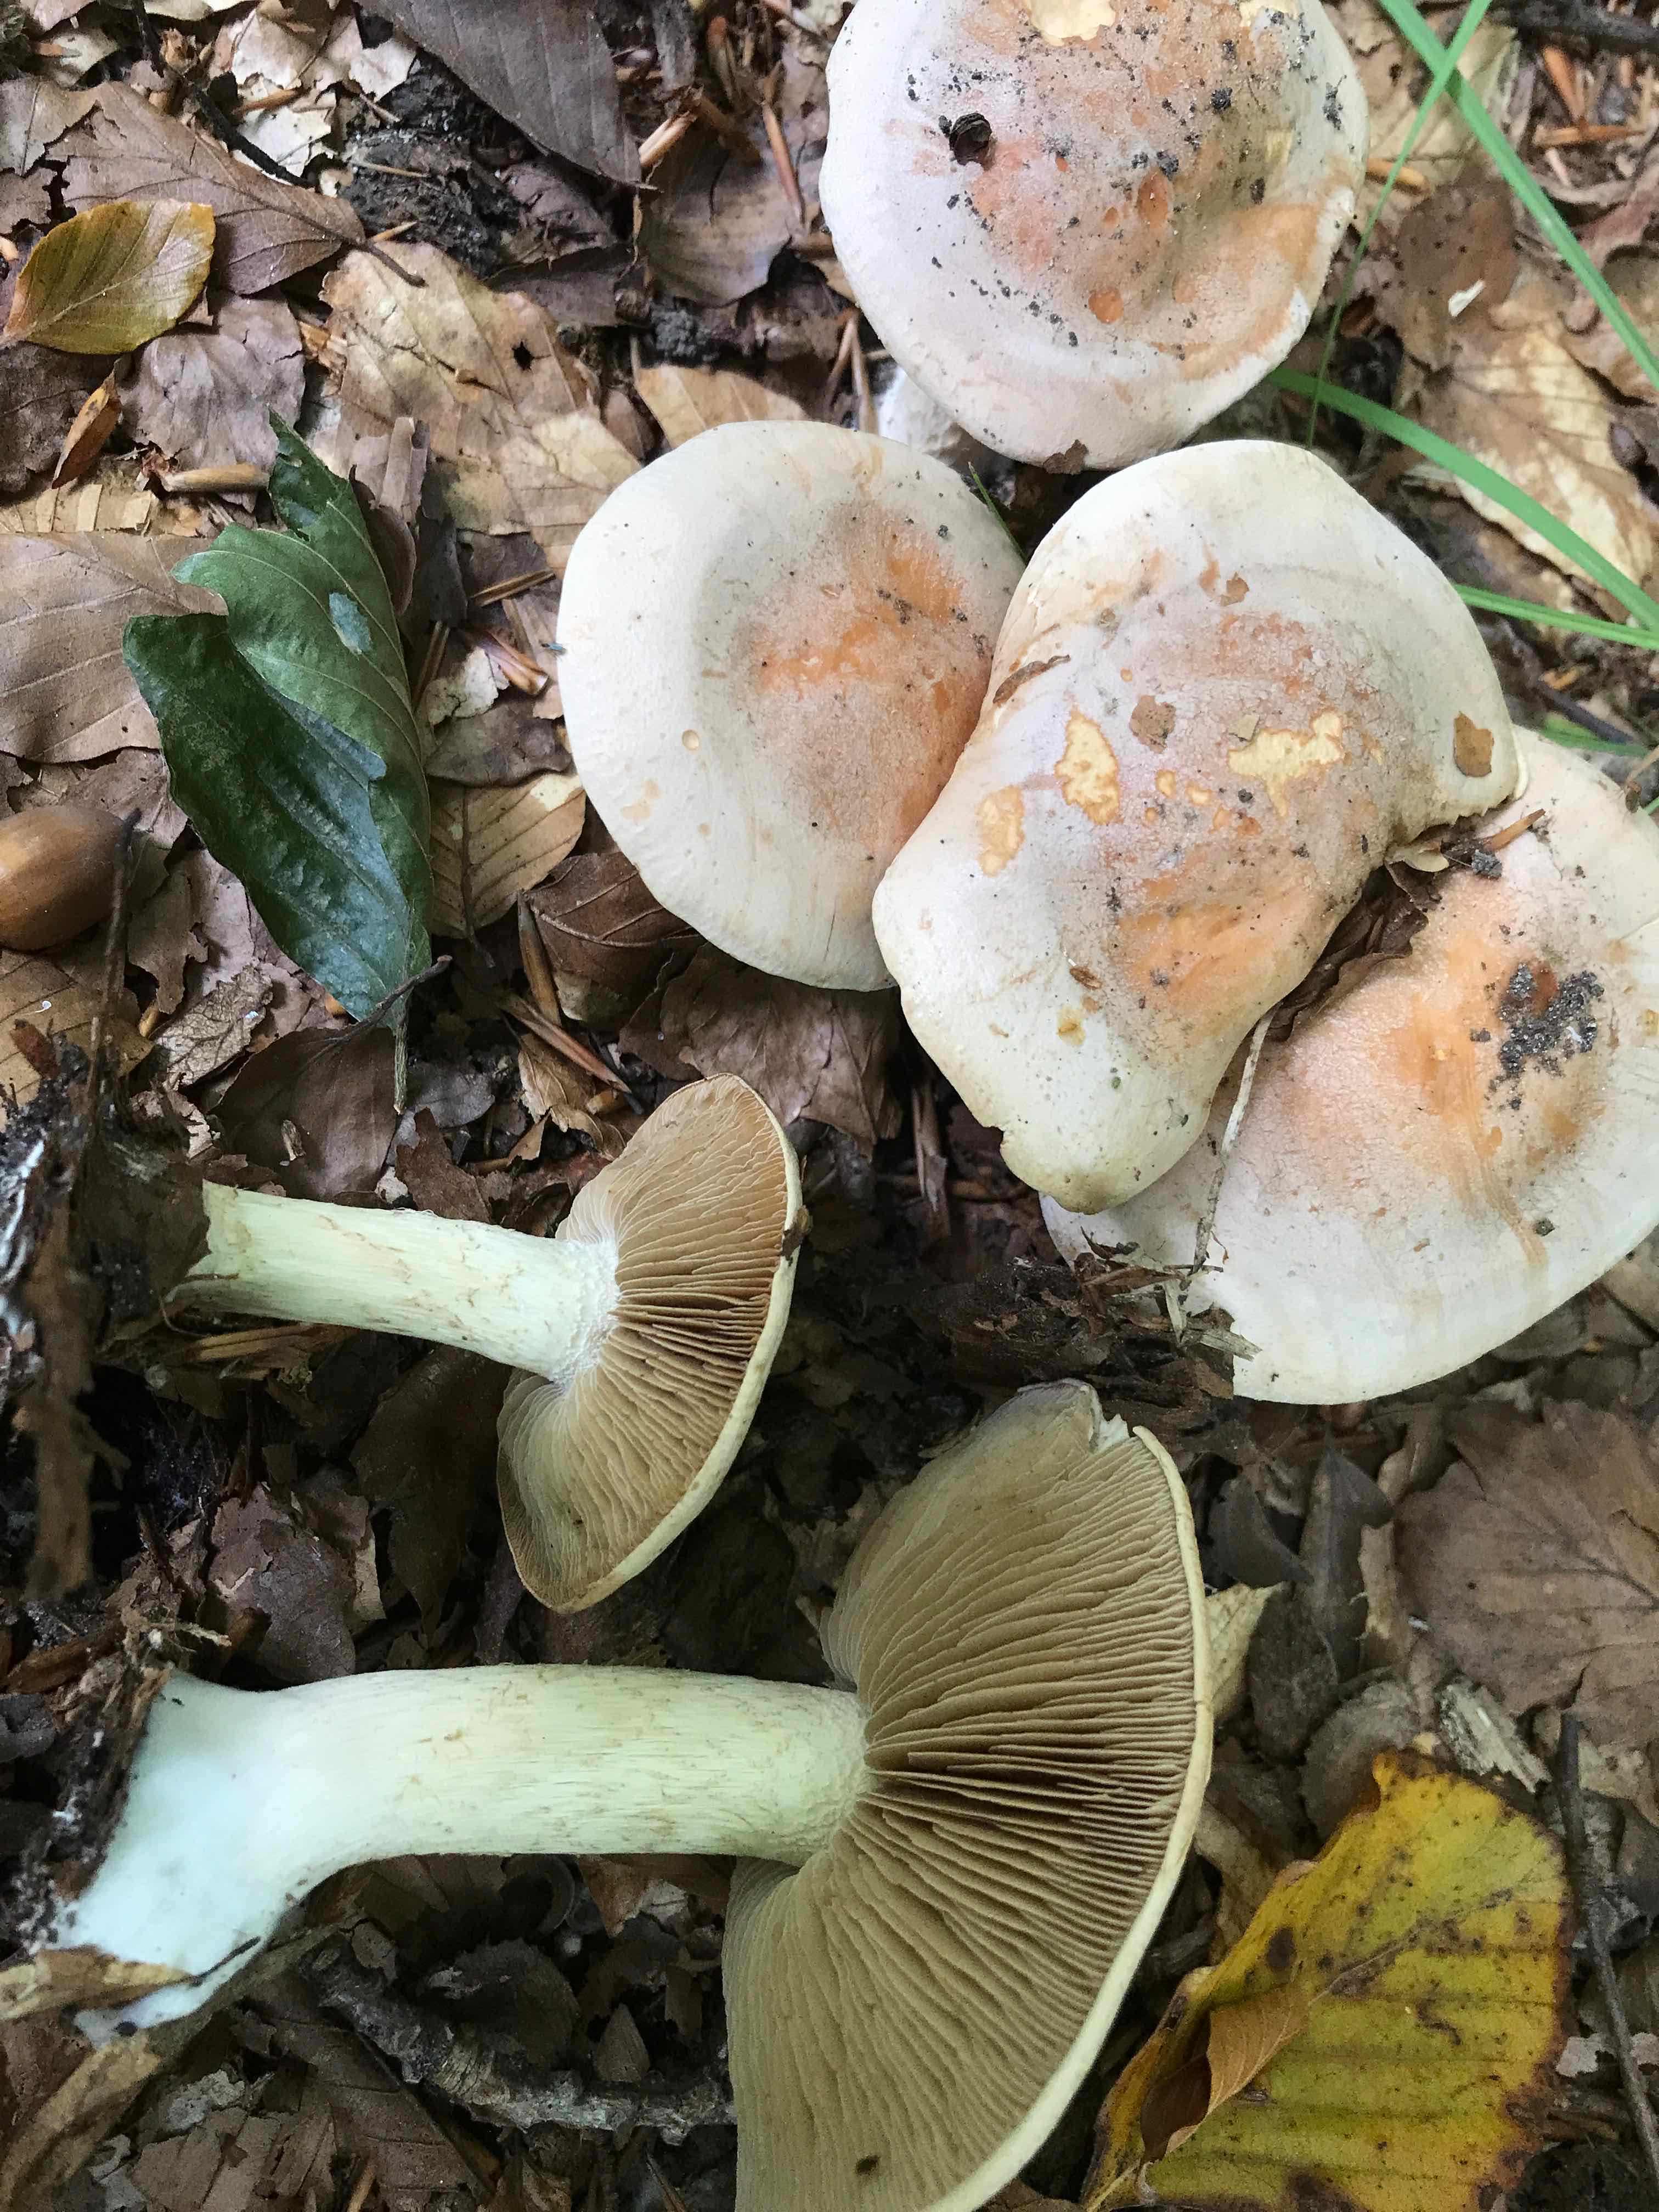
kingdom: Fungi
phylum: Basidiomycota
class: Agaricomycetes
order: Agaricales
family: Hymenogastraceae
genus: Hebeloma
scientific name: Hebeloma sinapizans
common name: ræddike-tåreblad
